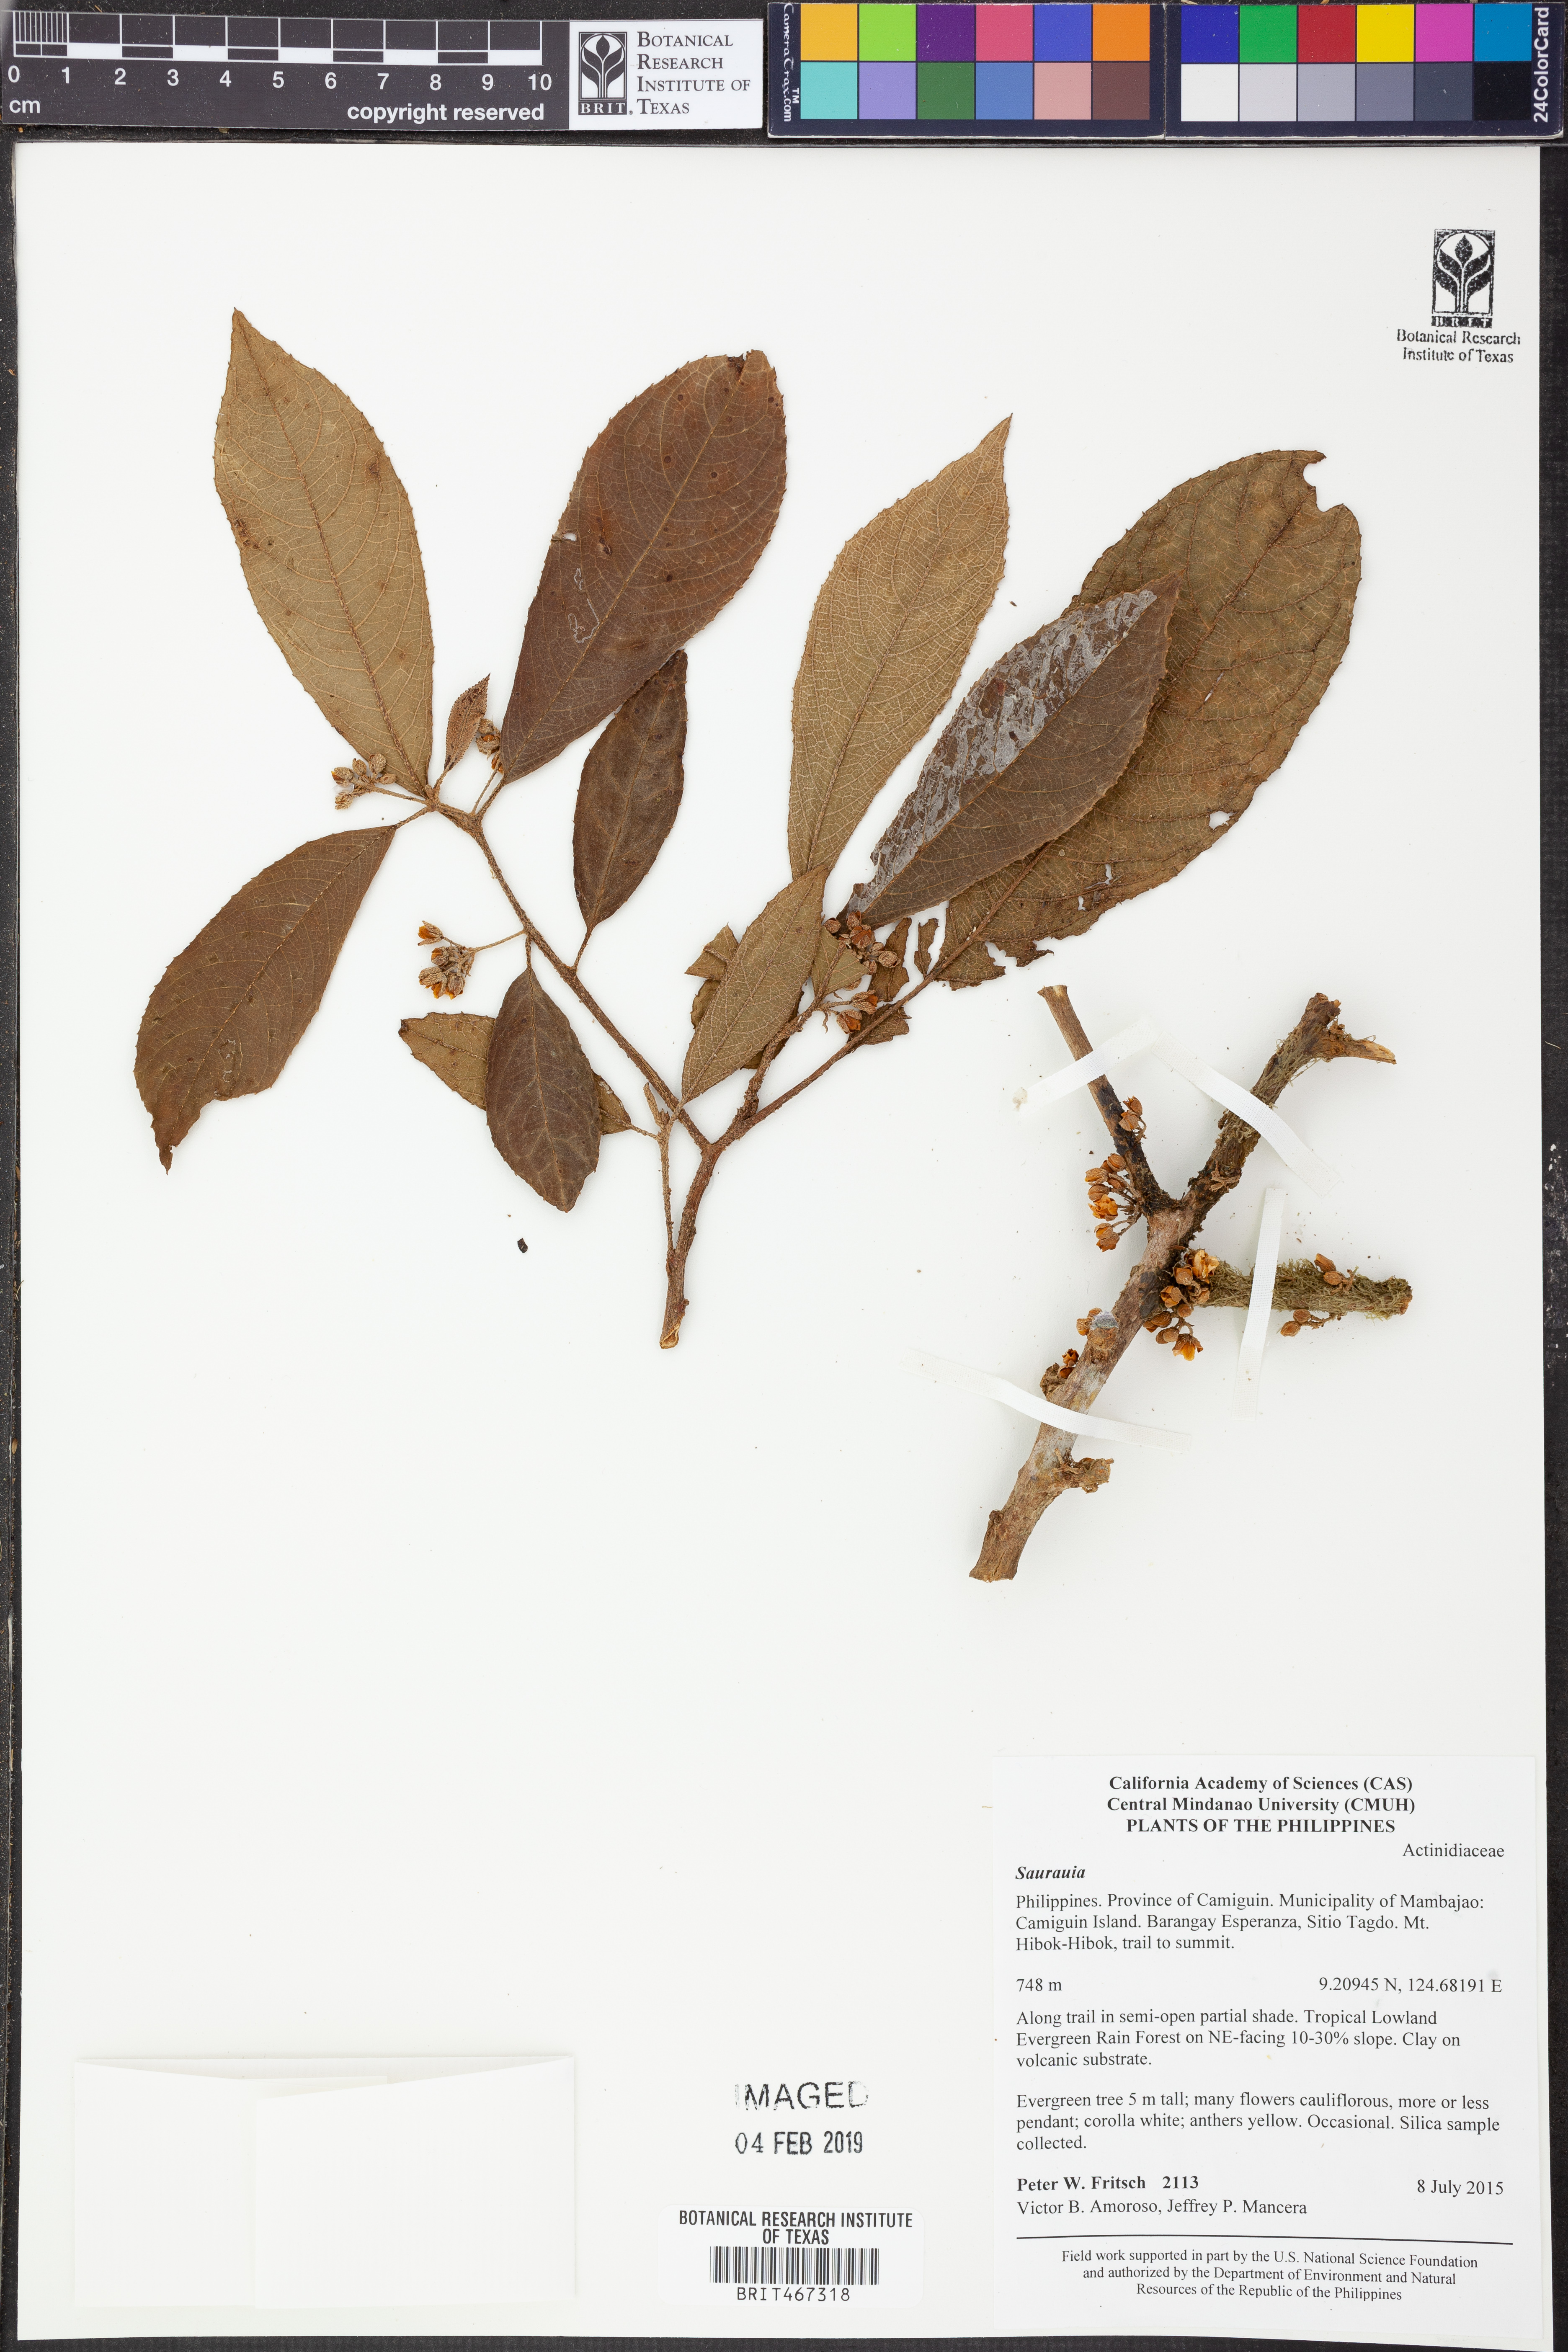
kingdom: Plantae
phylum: Tracheophyta
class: Magnoliopsida
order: Ericales
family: Actinidiaceae
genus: Saurauia
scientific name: Saurauia
